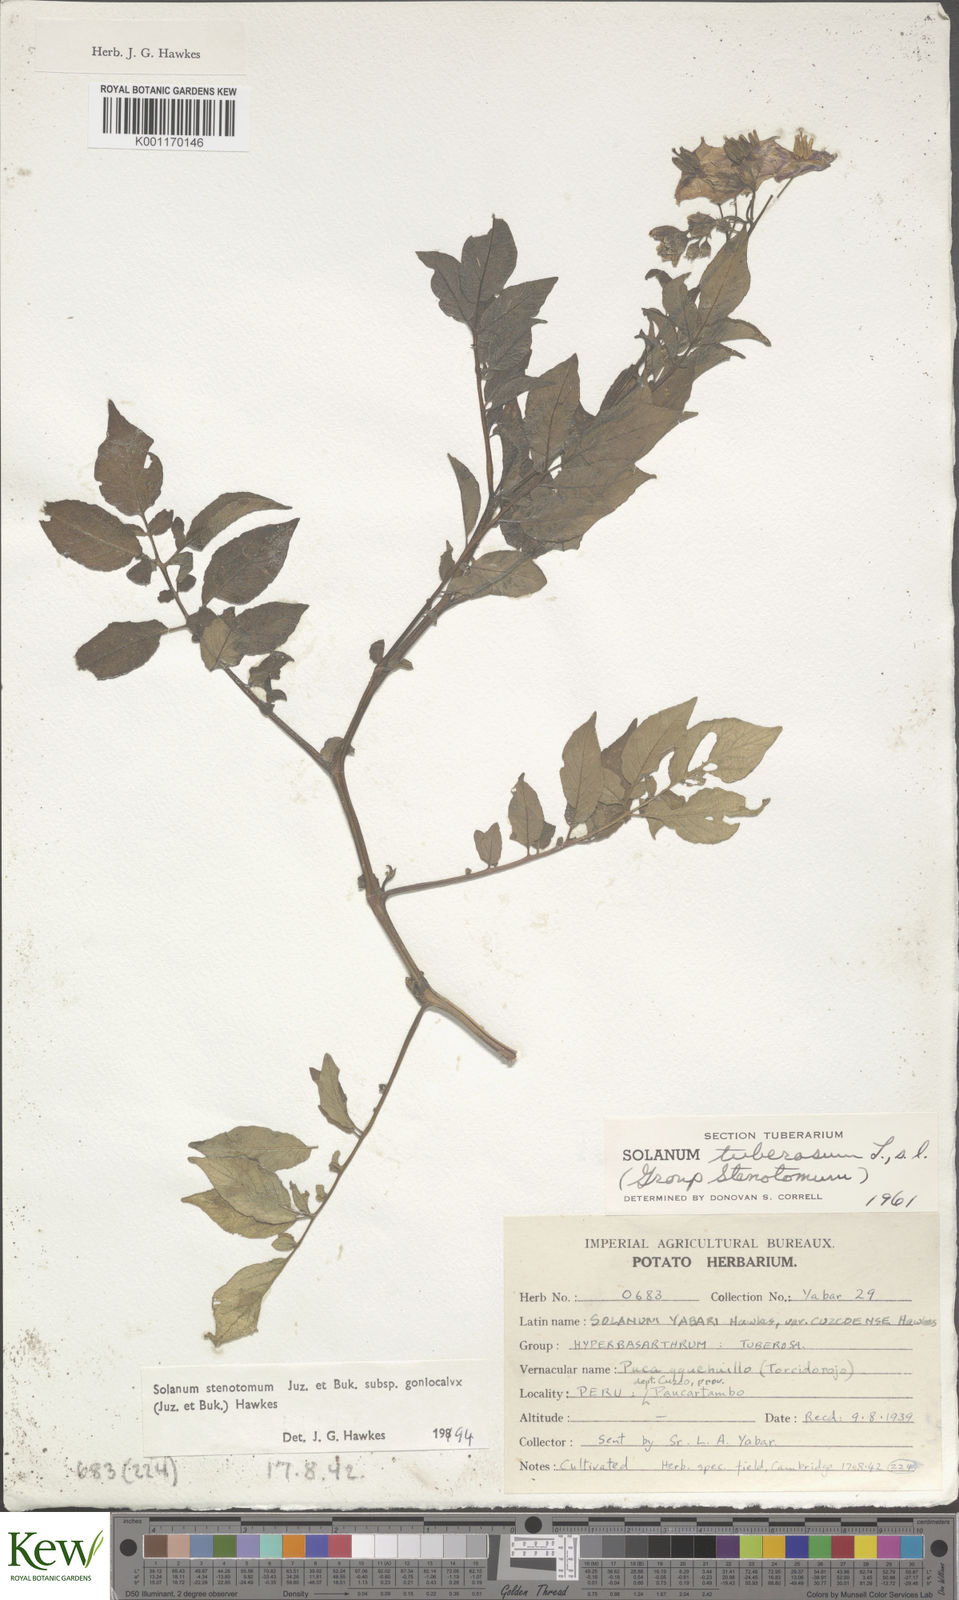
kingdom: Plantae
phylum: Tracheophyta
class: Magnoliopsida
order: Solanales
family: Solanaceae
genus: Solanum
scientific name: Solanum tuberosum
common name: Potato
